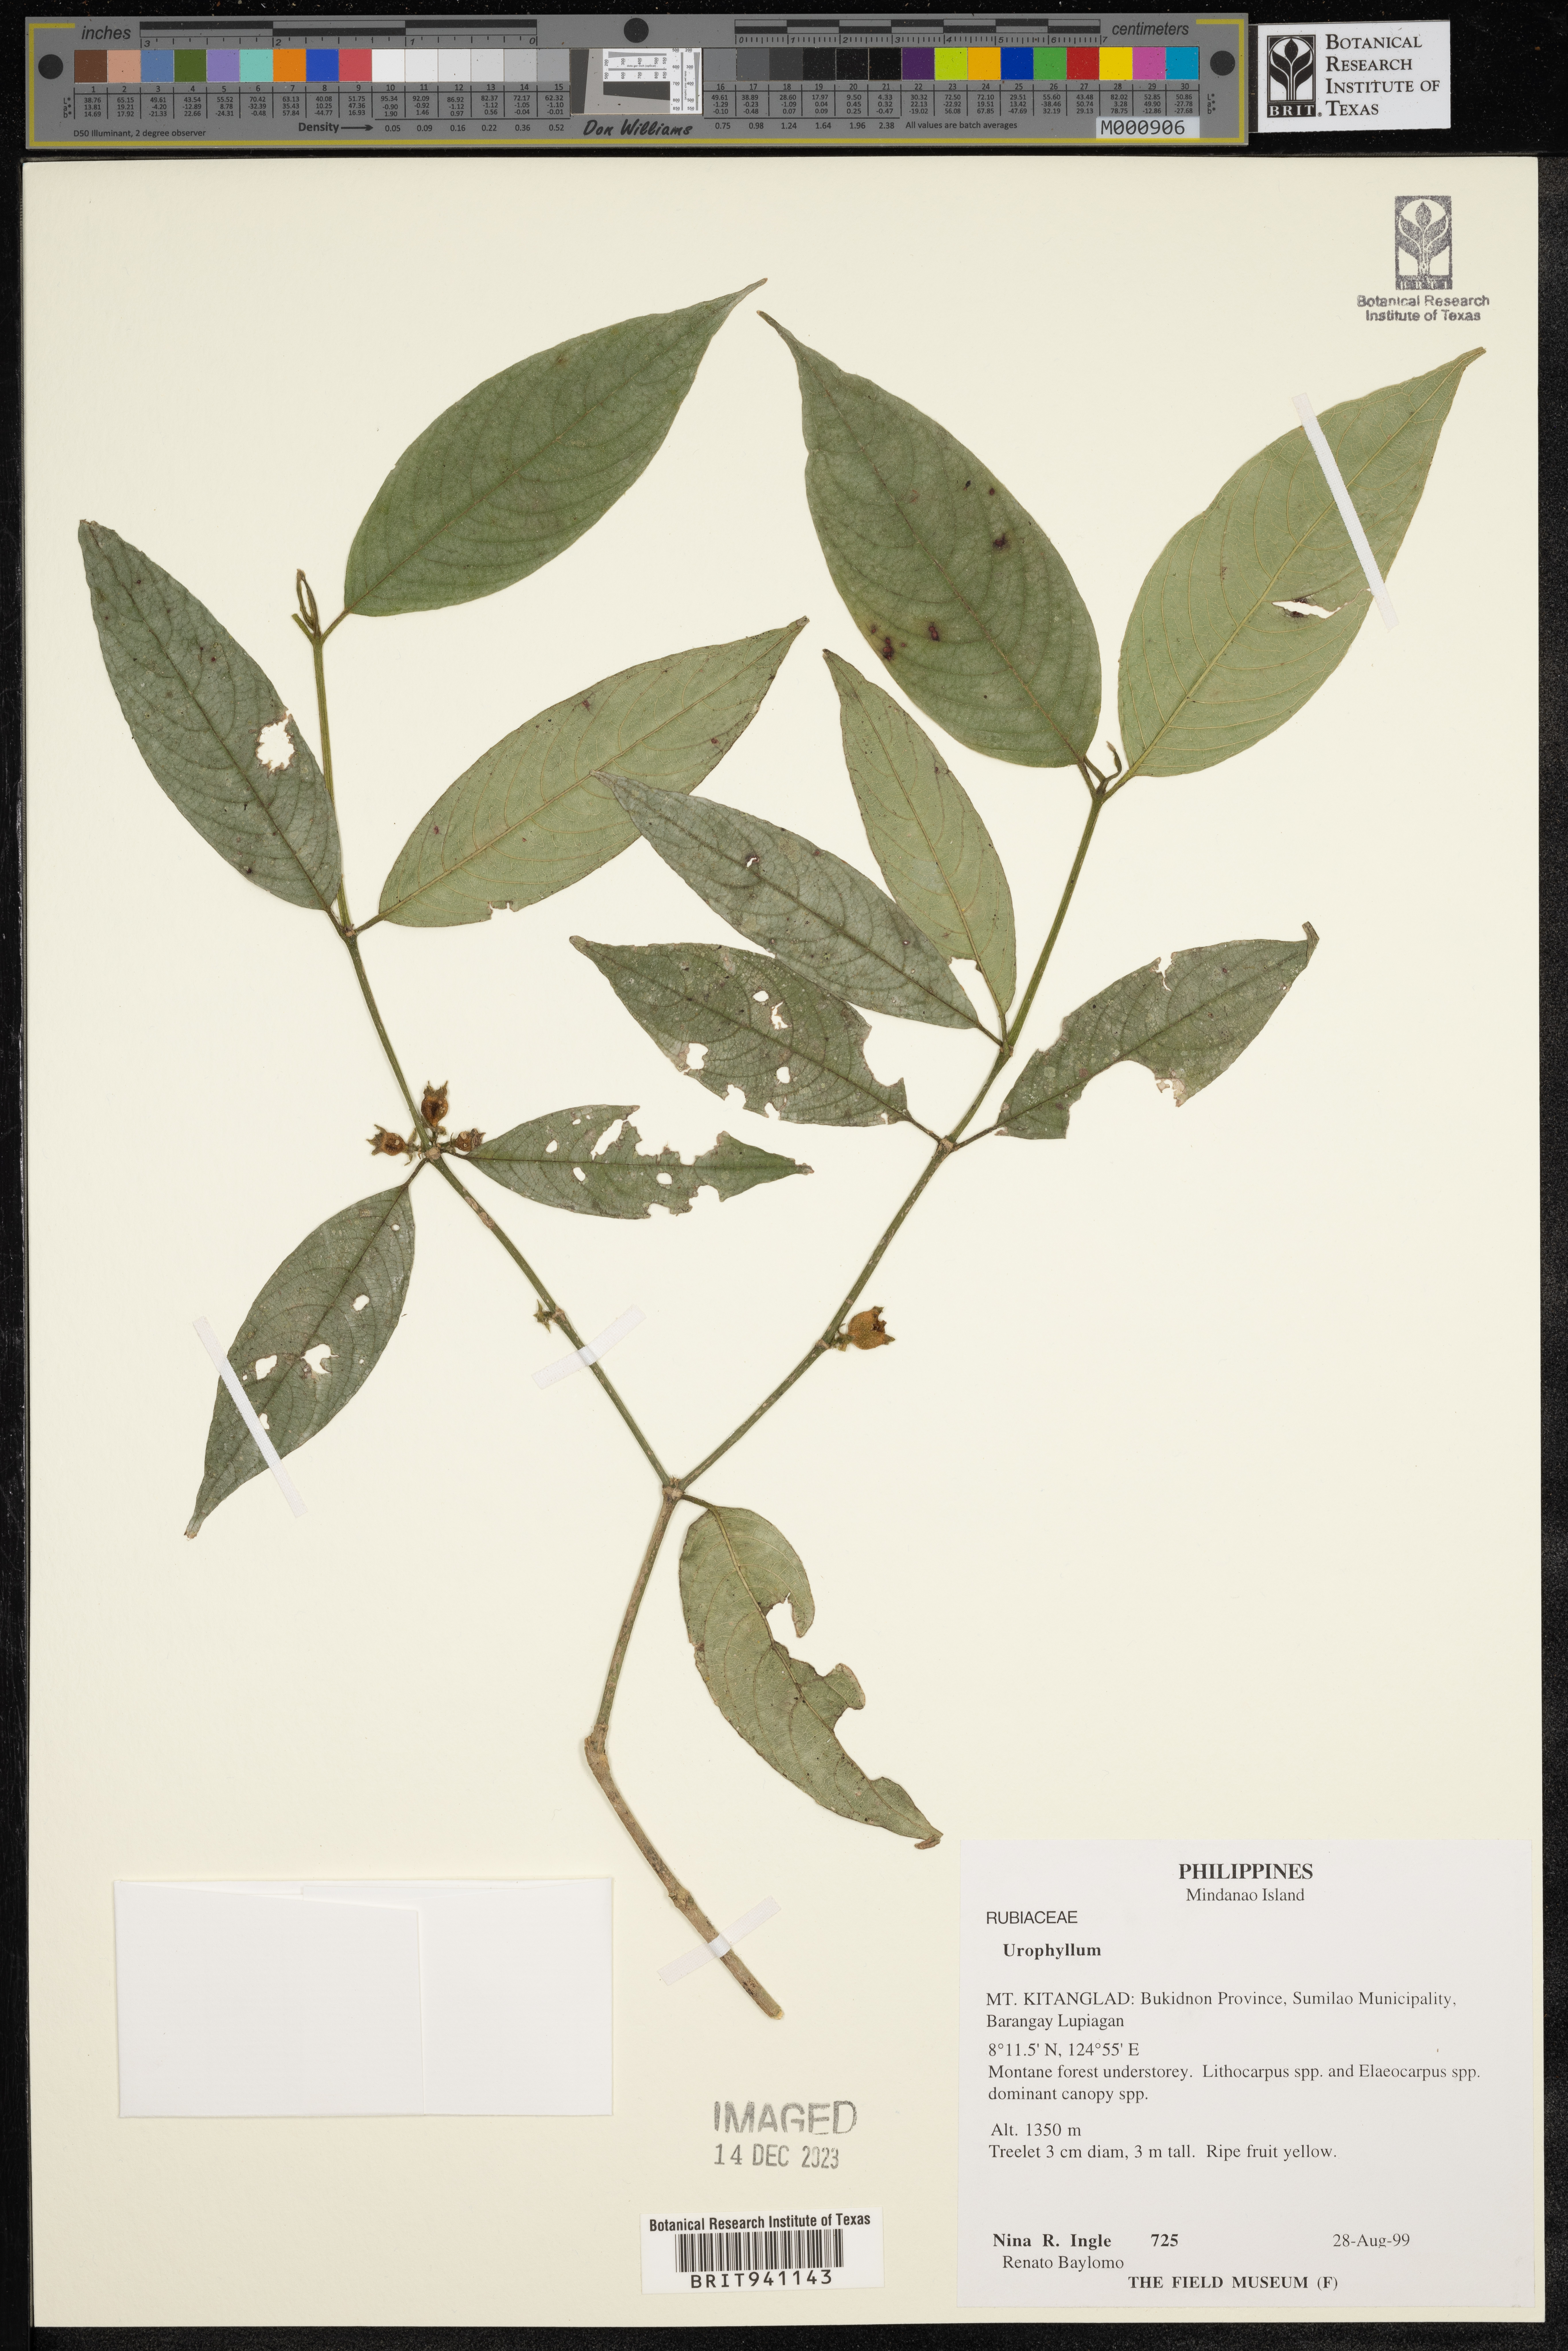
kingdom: Plantae
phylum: Tracheophyta
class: Magnoliopsida
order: Gentianales
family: Rubiaceae
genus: Urophyllum
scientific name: Urophyllum
